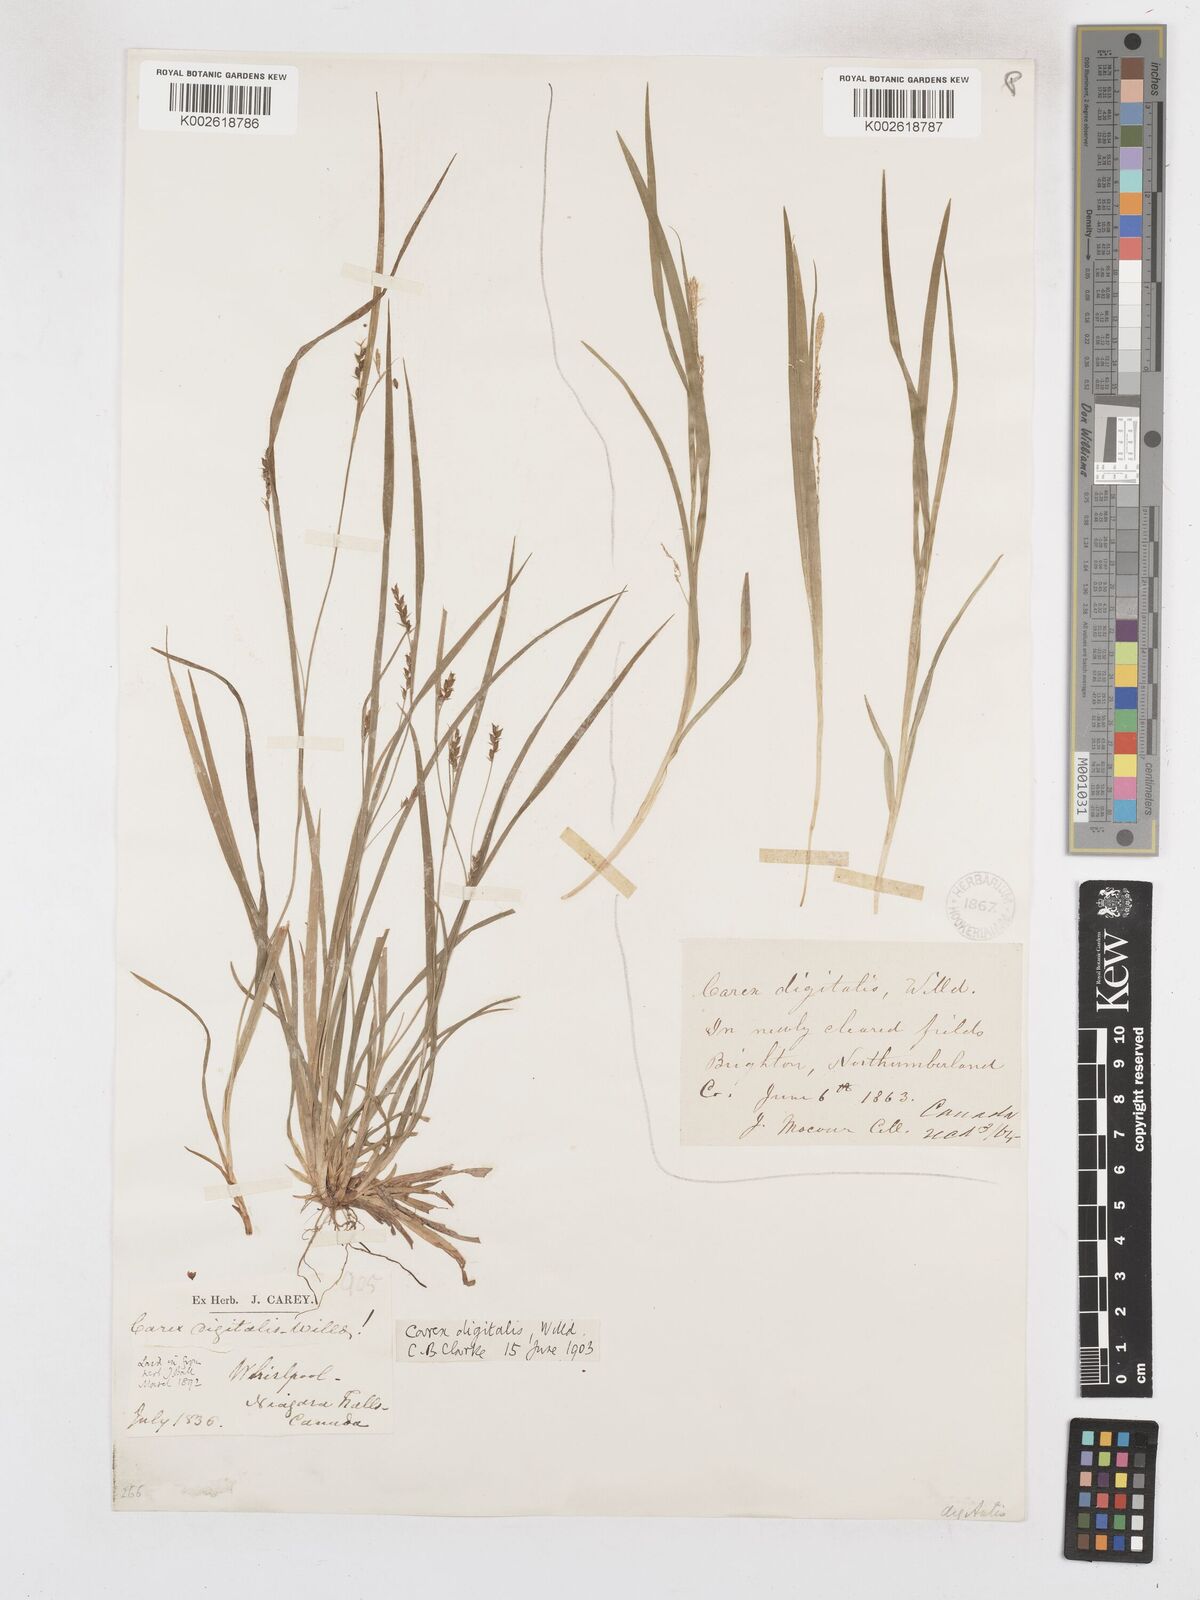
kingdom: Plantae
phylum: Tracheophyta
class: Liliopsida
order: Poales
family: Cyperaceae
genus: Carex
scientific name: Carex digitalis
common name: Slender wood sedge
